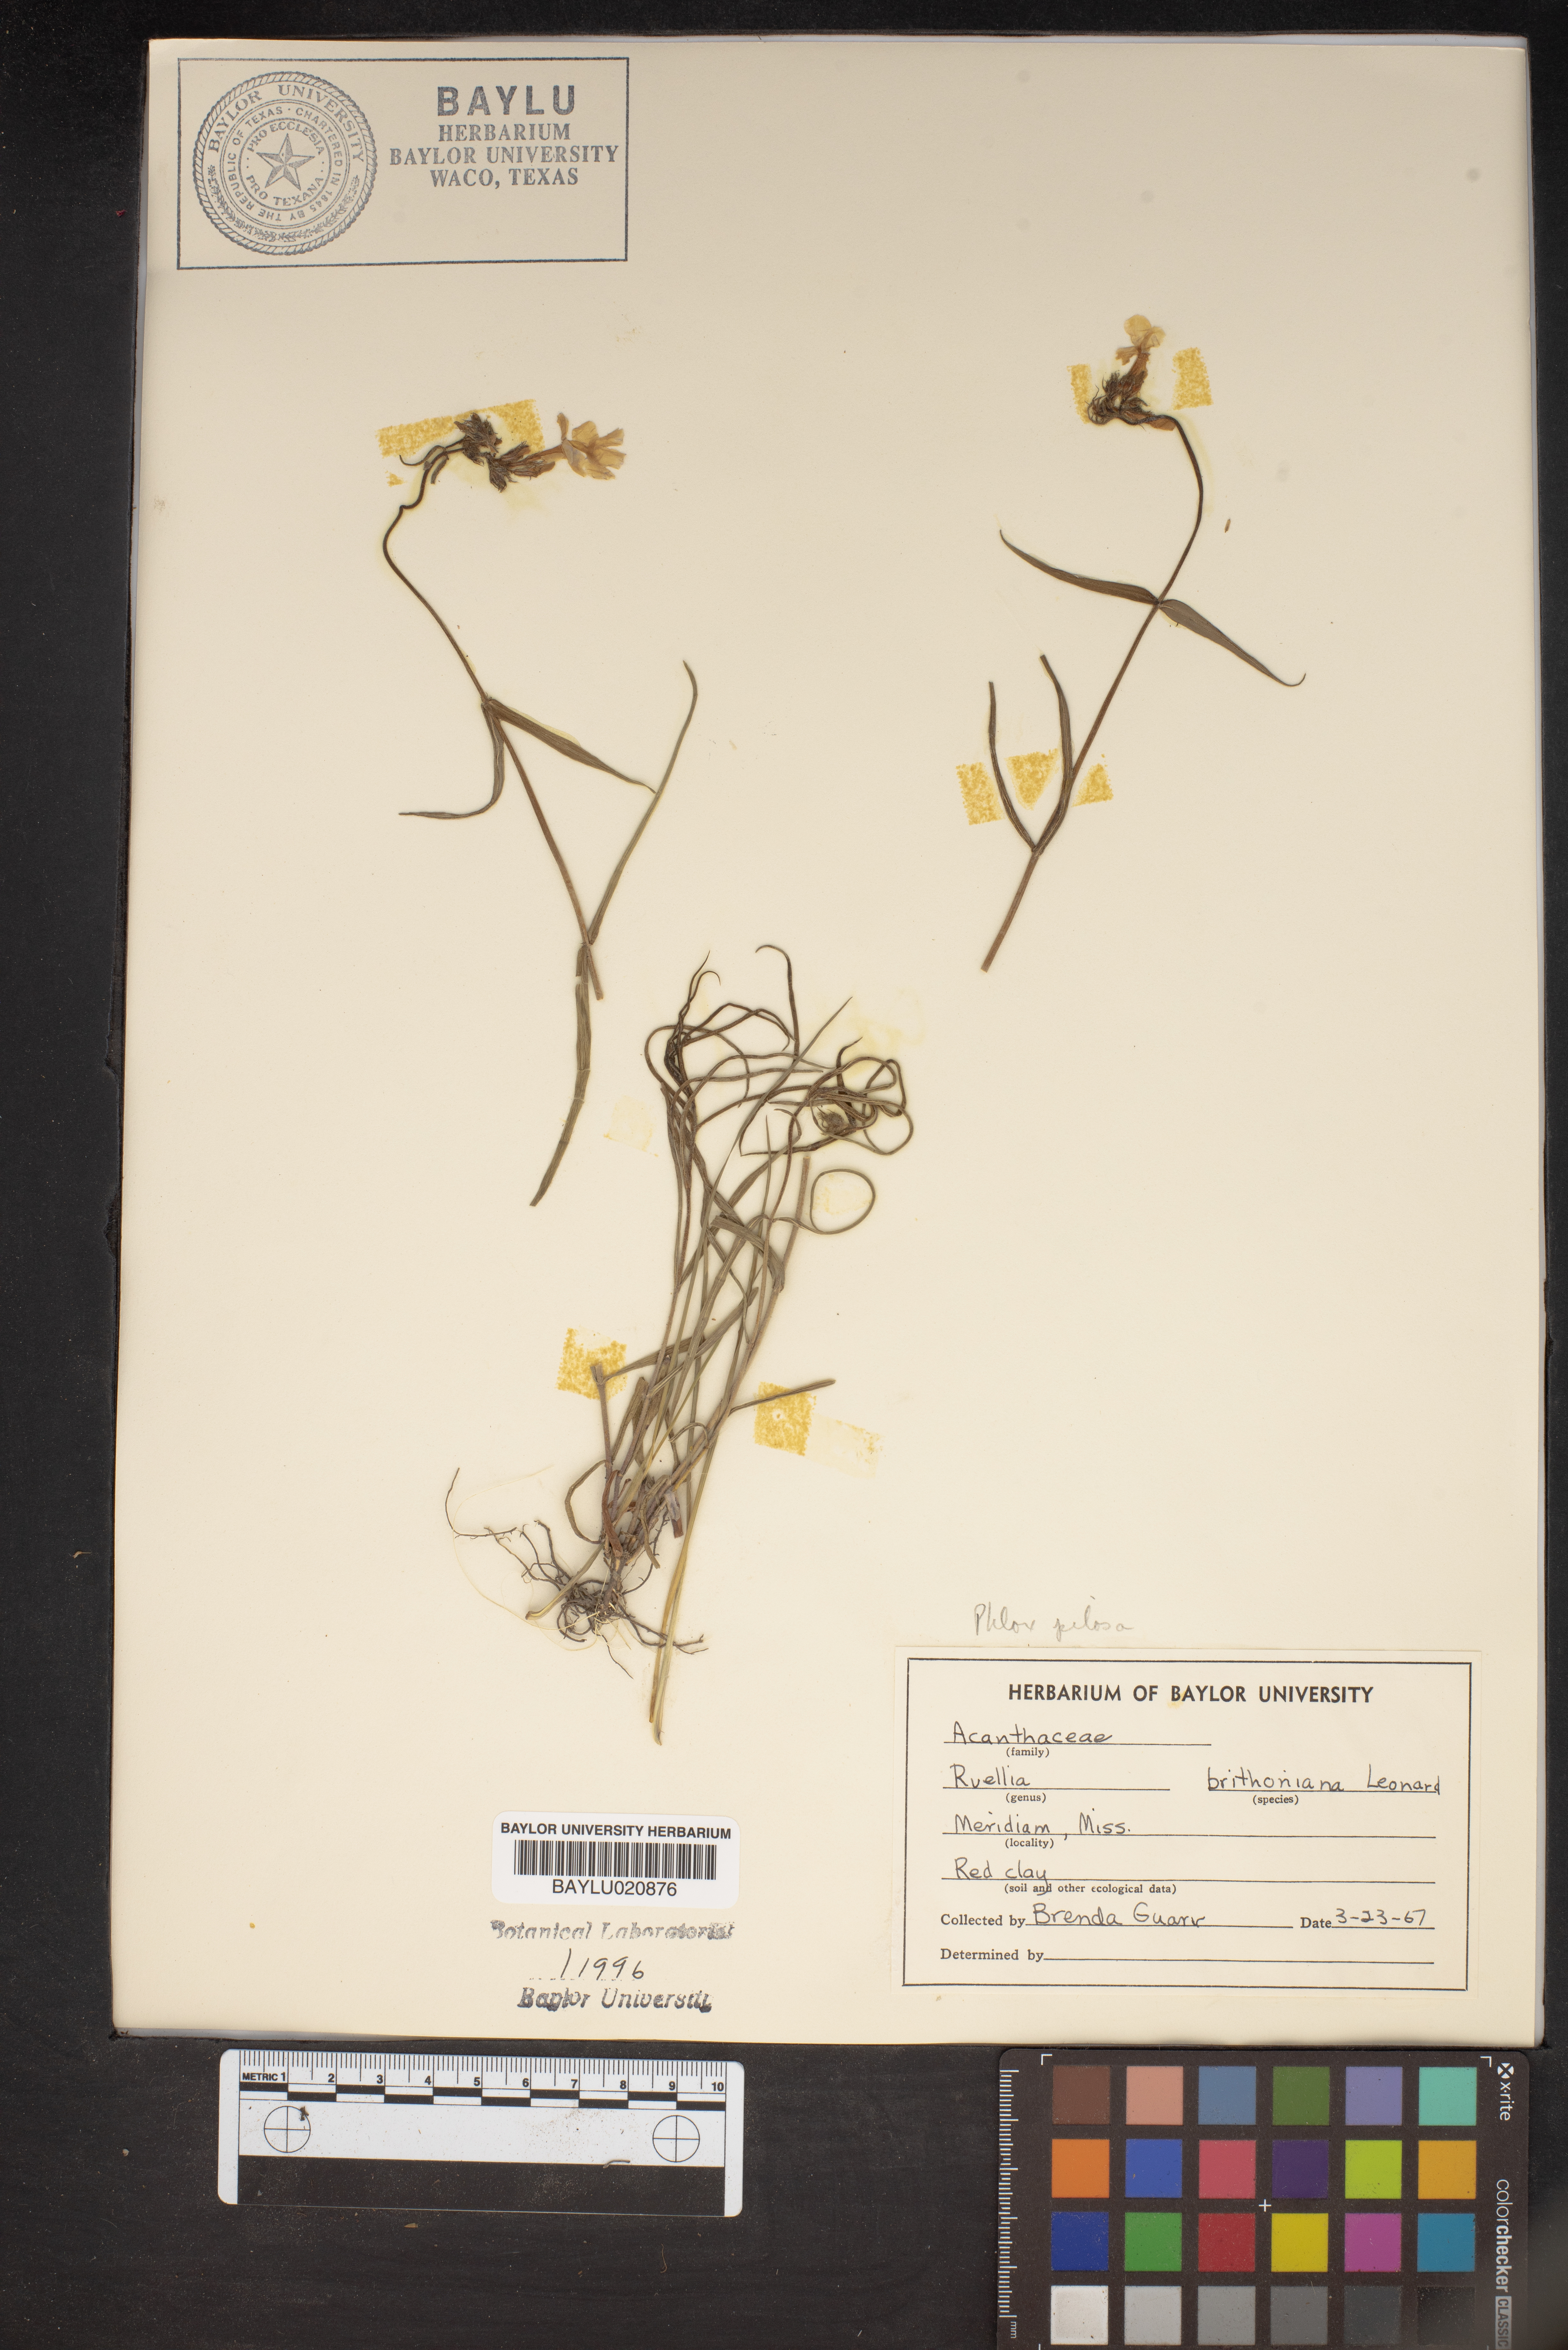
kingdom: Plantae
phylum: Tracheophyta
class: Magnoliopsida
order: Lamiales
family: Acanthaceae
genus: Ruellia
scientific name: Ruellia simplex
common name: Softseed wild petunia
